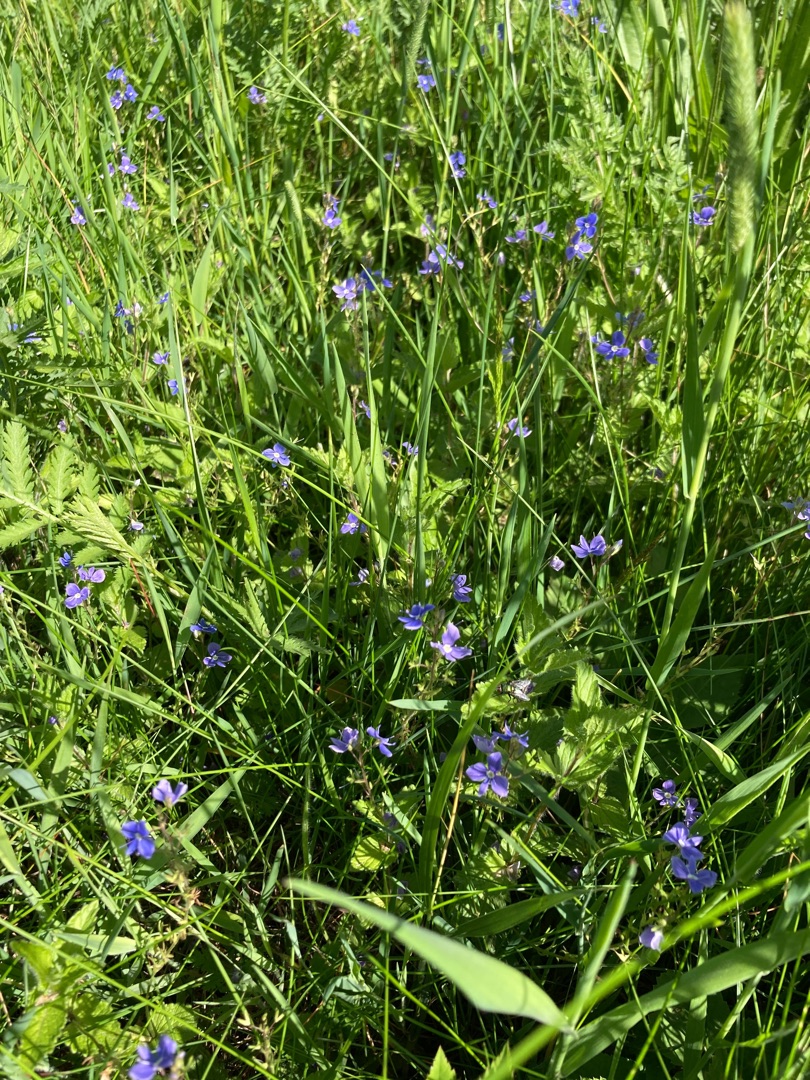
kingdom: Plantae
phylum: Tracheophyta
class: Magnoliopsida
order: Lamiales
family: Plantaginaceae
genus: Veronica
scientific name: Veronica chamaedrys
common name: Tveskægget ærenpris
